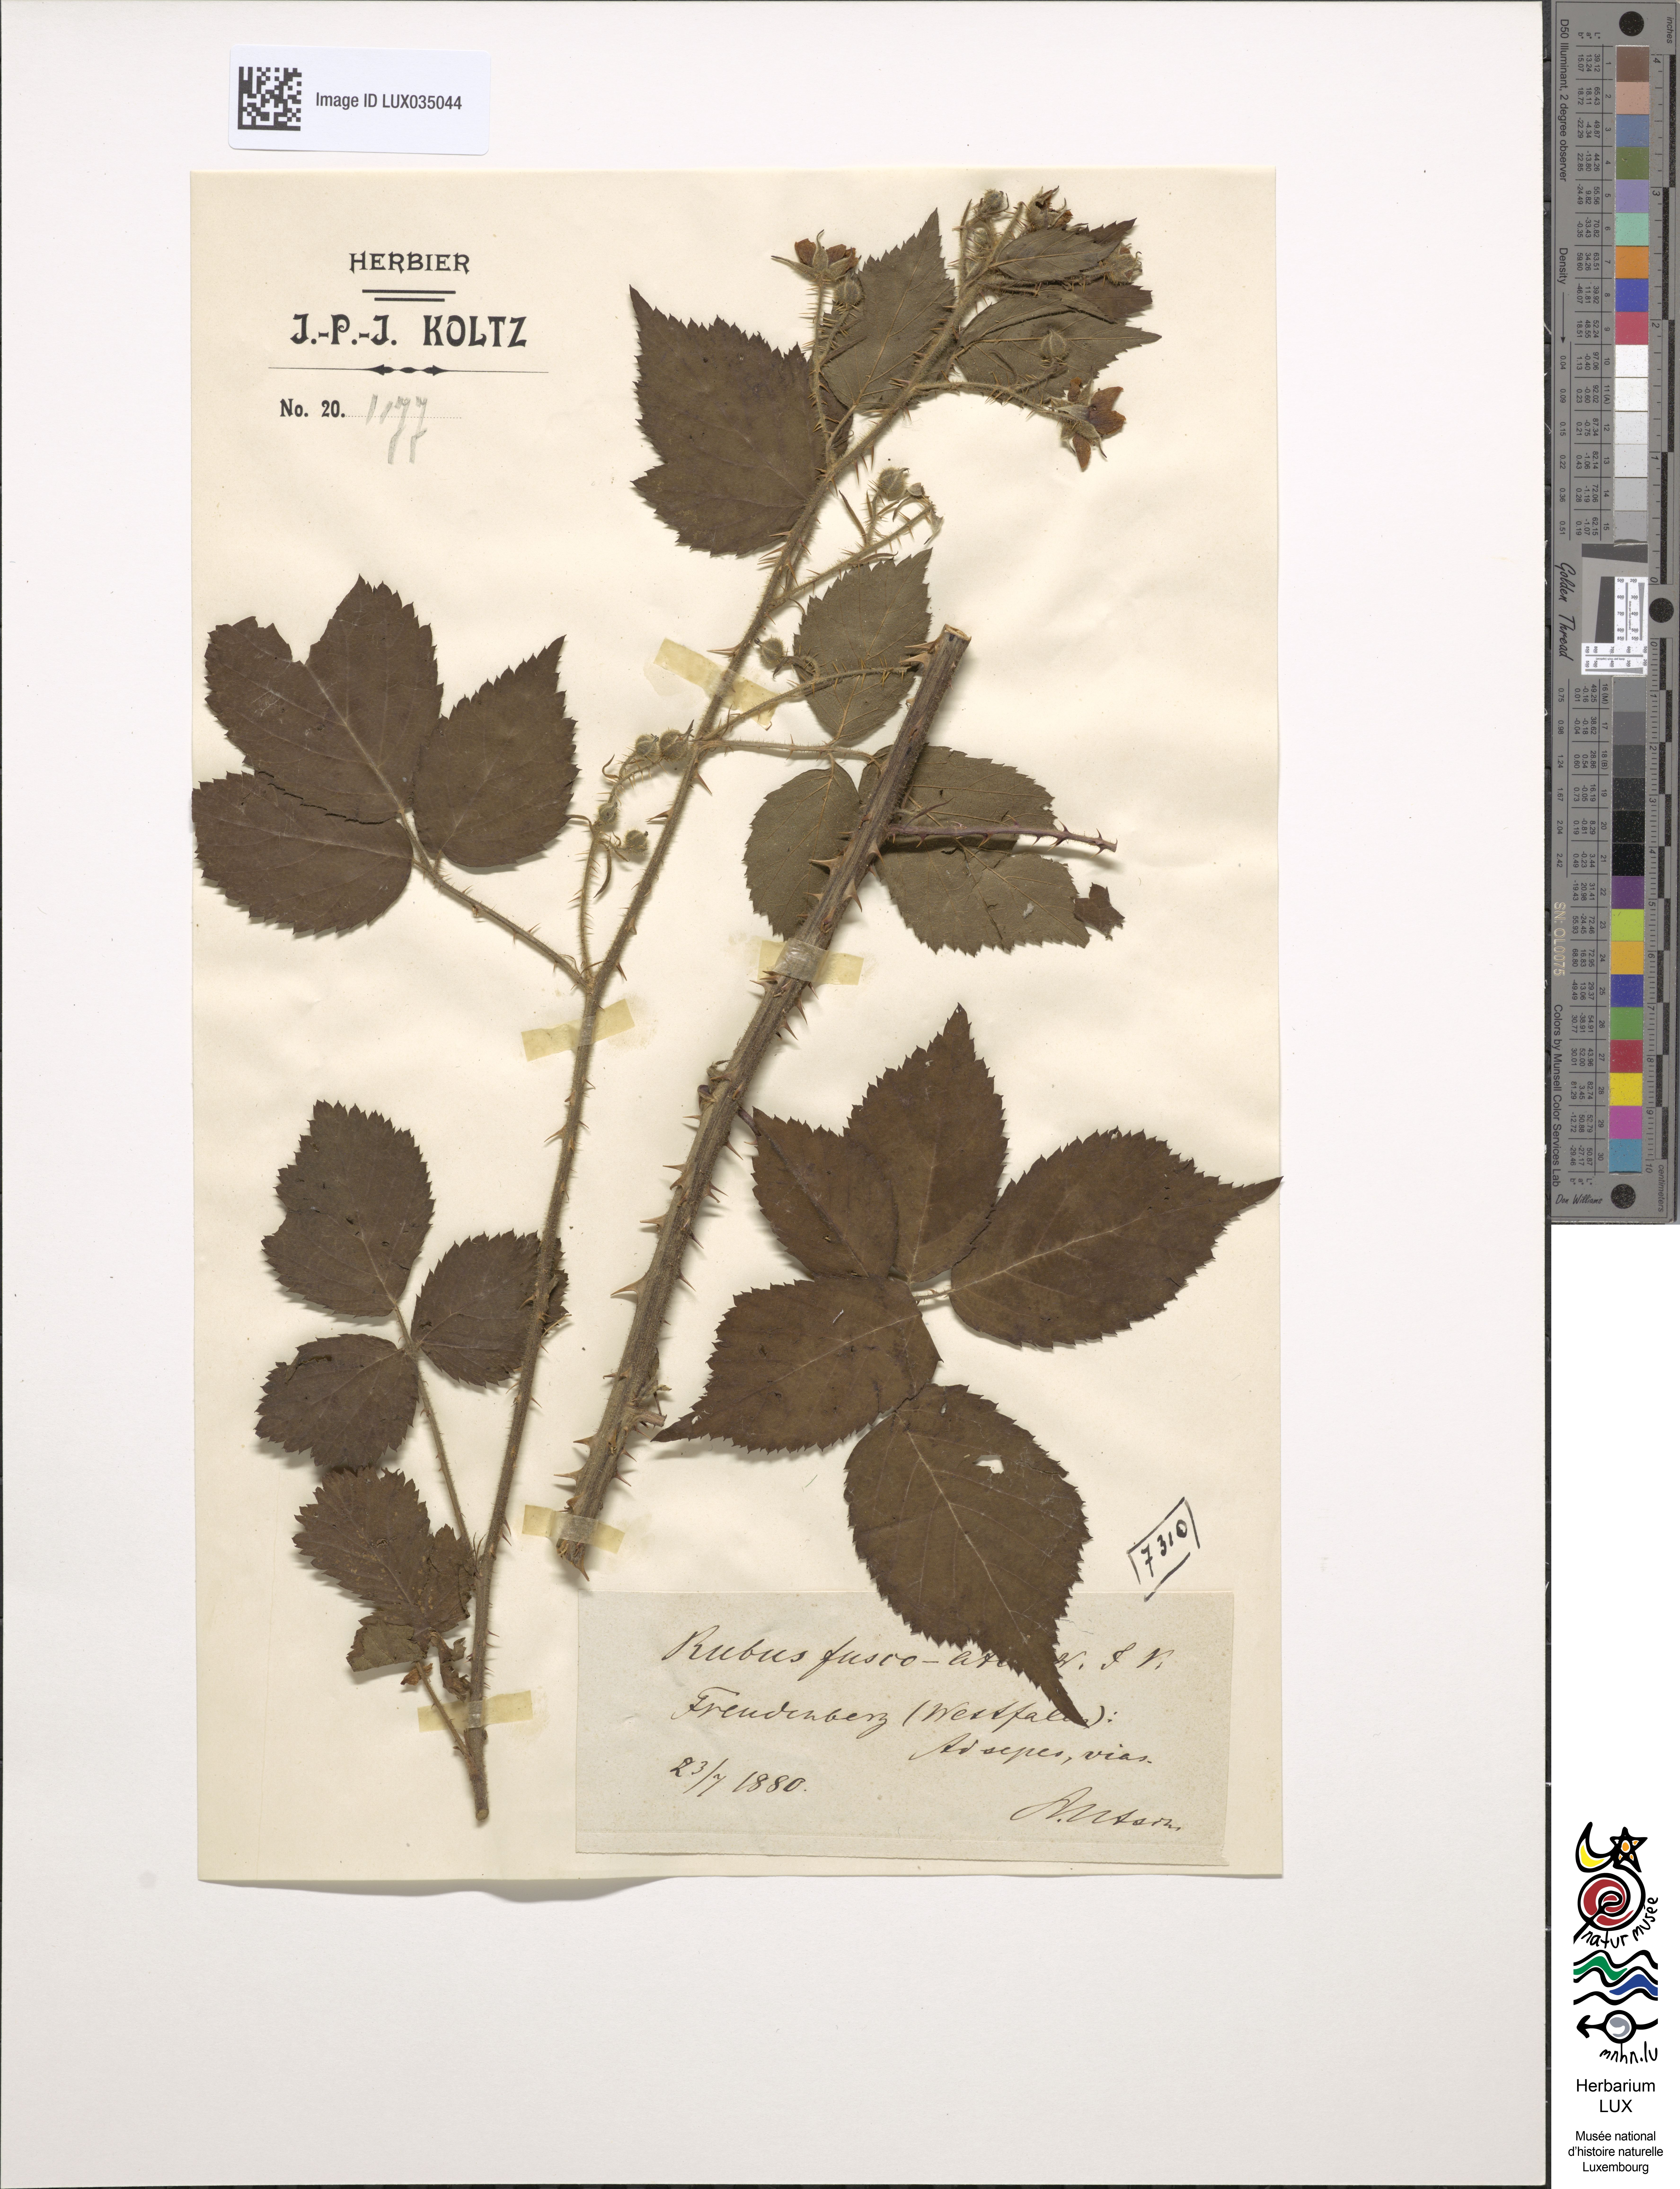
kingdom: Plantae
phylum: Tracheophyta
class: Magnoliopsida
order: Rosales
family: Rosaceae
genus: Rubus
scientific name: Rubus fuscater
